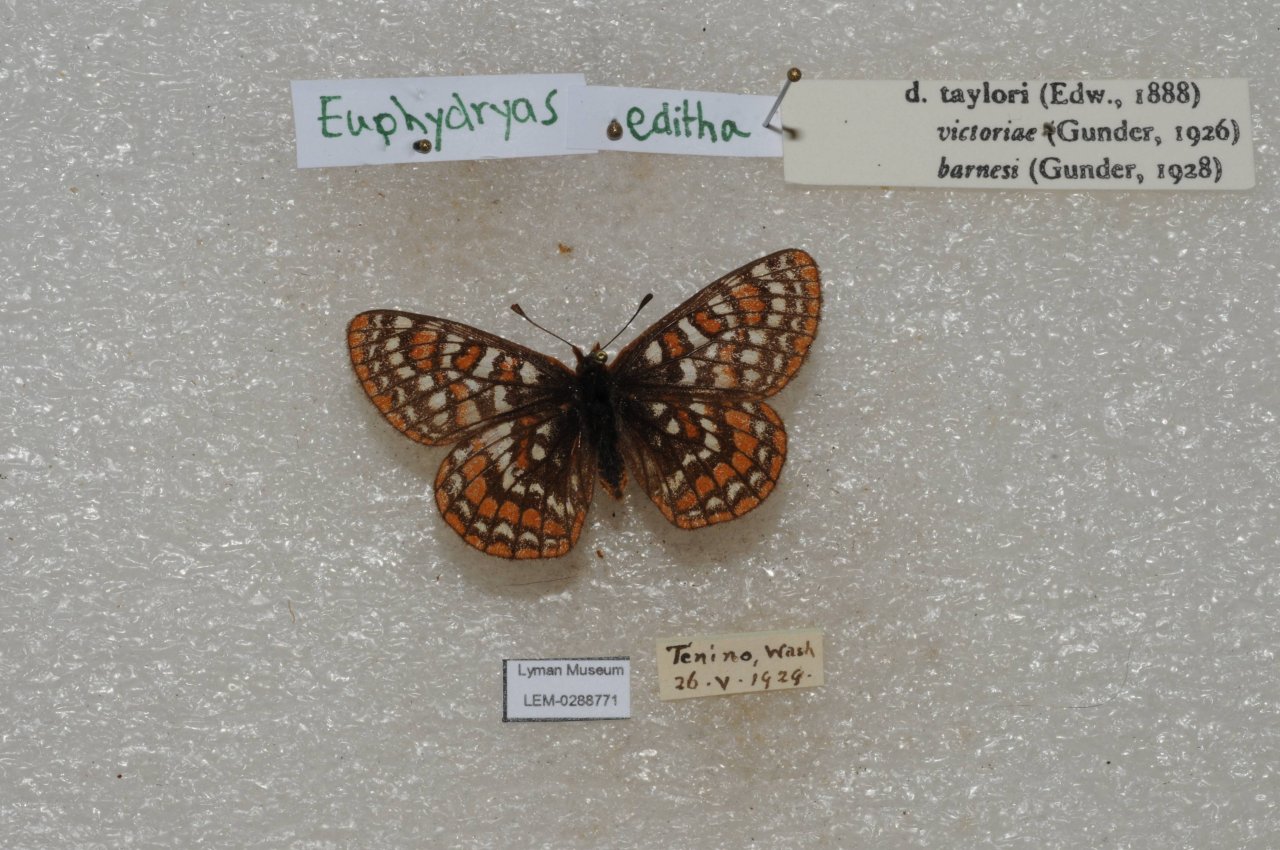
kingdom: Animalia
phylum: Arthropoda
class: Insecta
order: Lepidoptera
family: Nymphalidae
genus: Occidryas
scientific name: Occidryas editha
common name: Edith's Checkerspot
